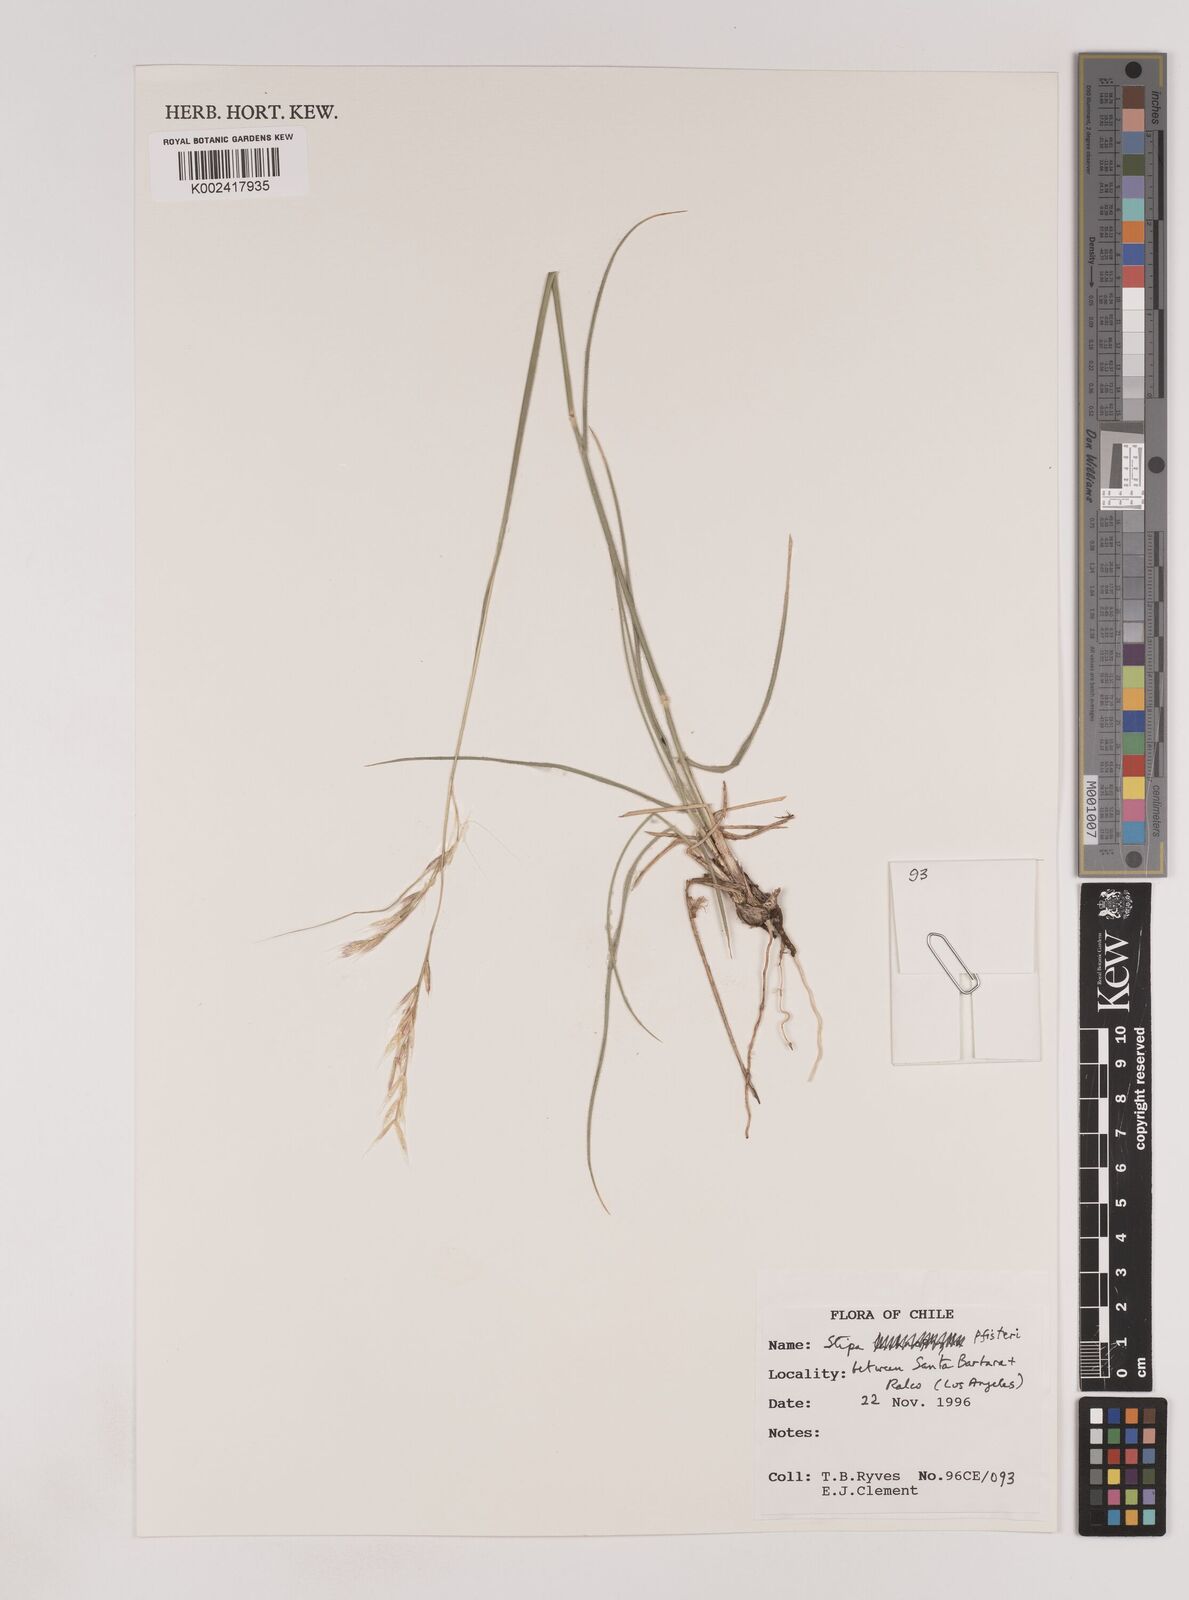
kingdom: Plantae
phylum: Tracheophyta
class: Liliopsida
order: Poales
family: Poaceae
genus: Nassella
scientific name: Nassella pfisteri
